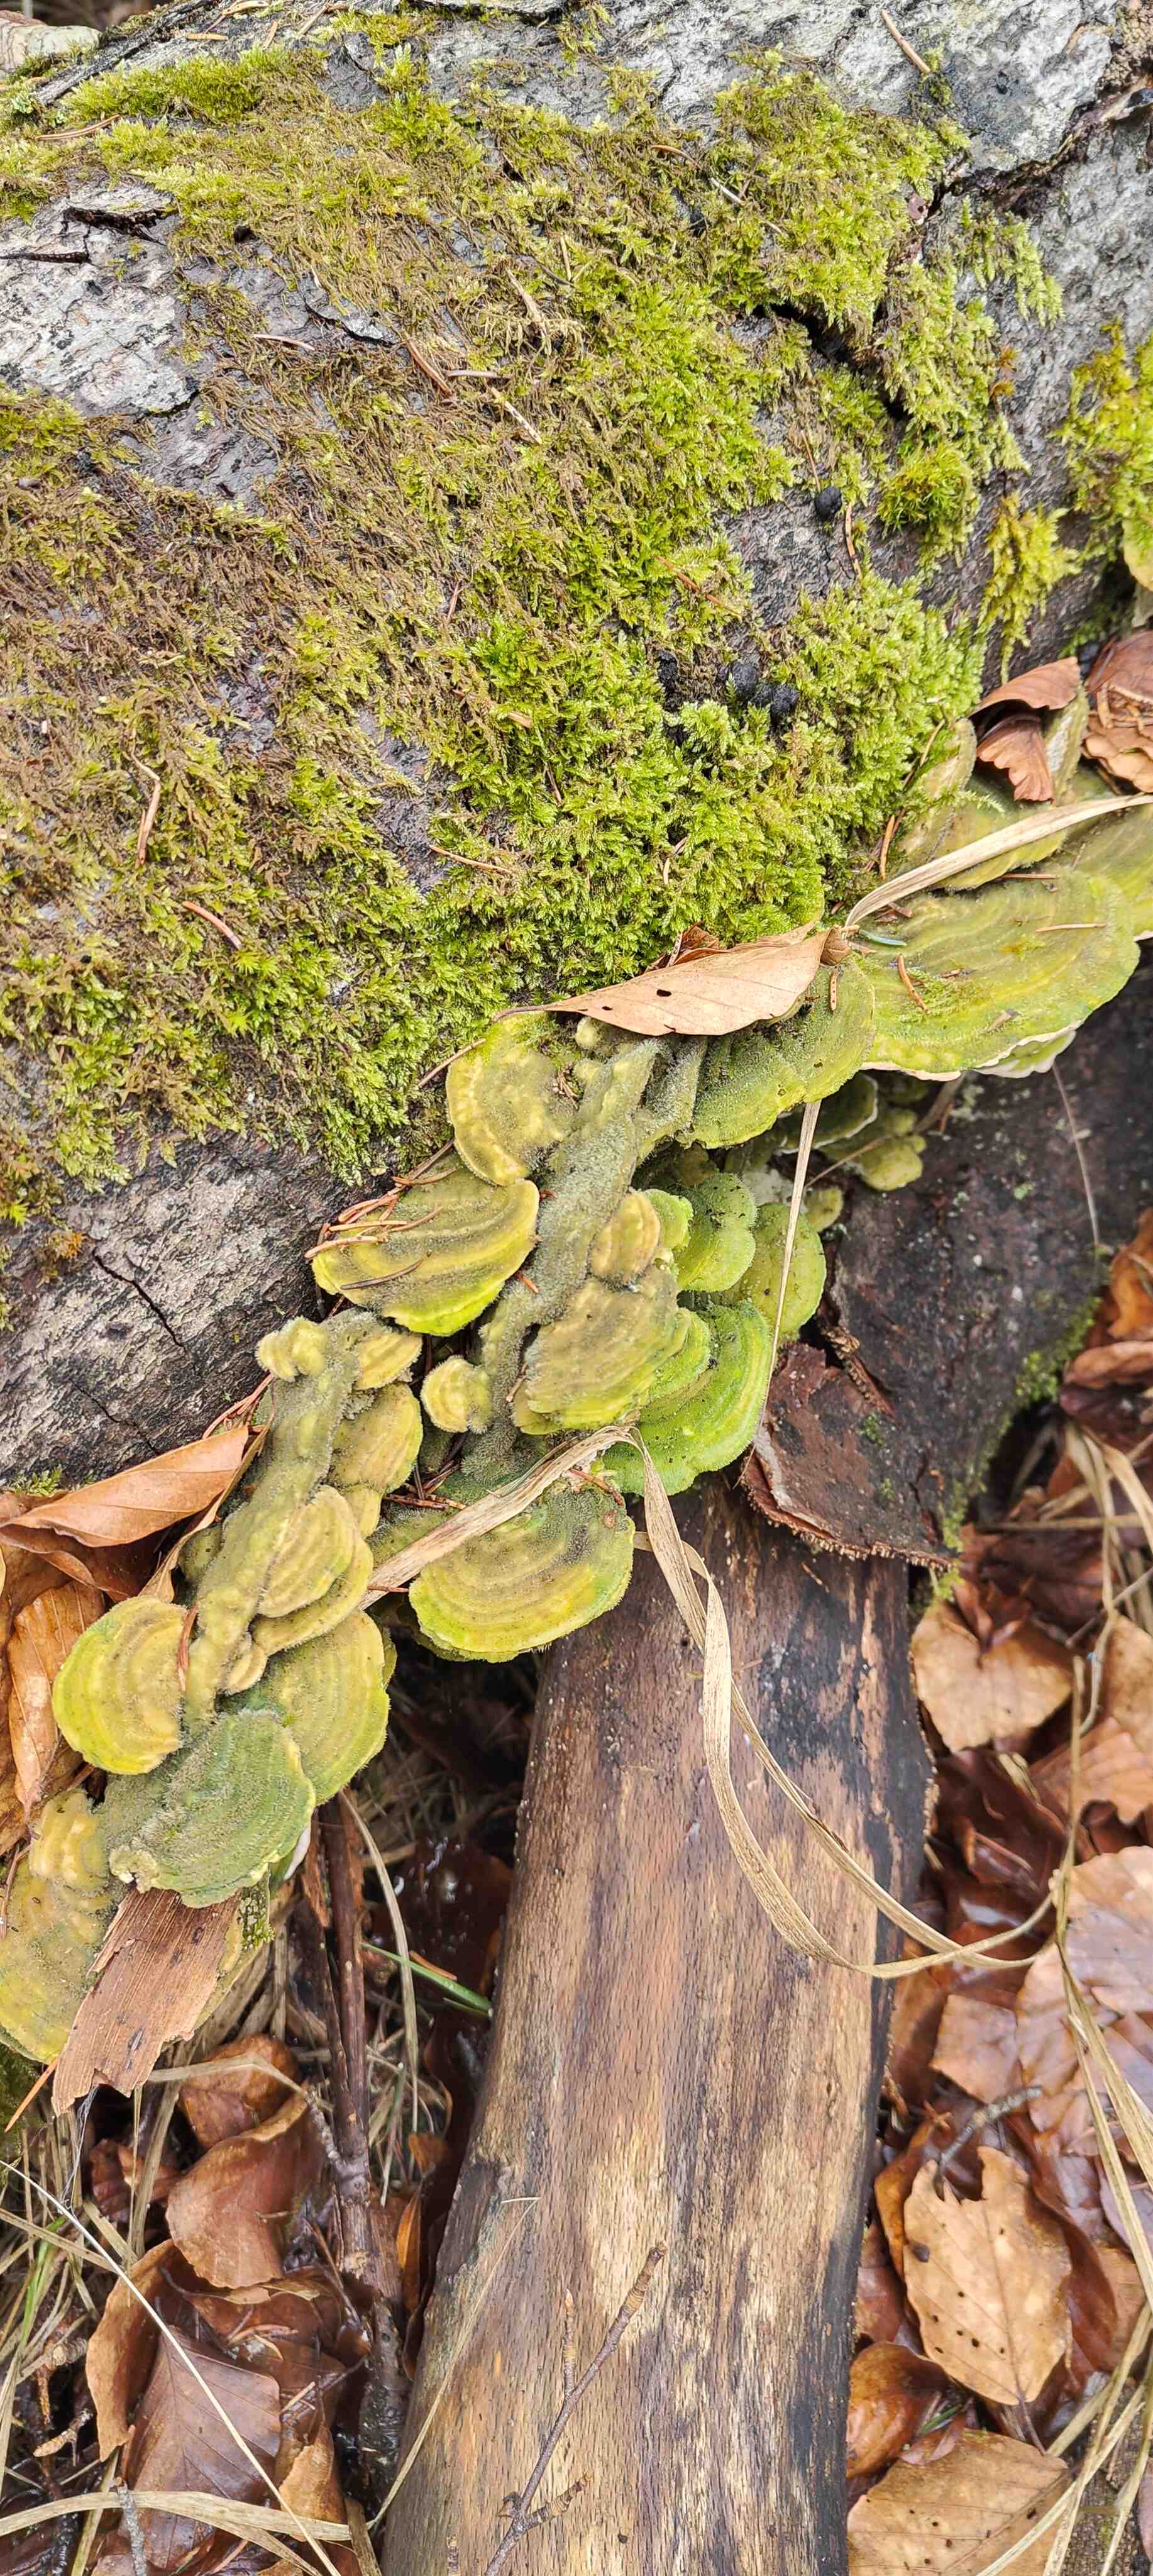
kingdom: Fungi
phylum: Basidiomycota
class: Agaricomycetes
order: Polyporales
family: Polyporaceae
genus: Trametes
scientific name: Trametes hirsuta
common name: håret læderporesvamp
